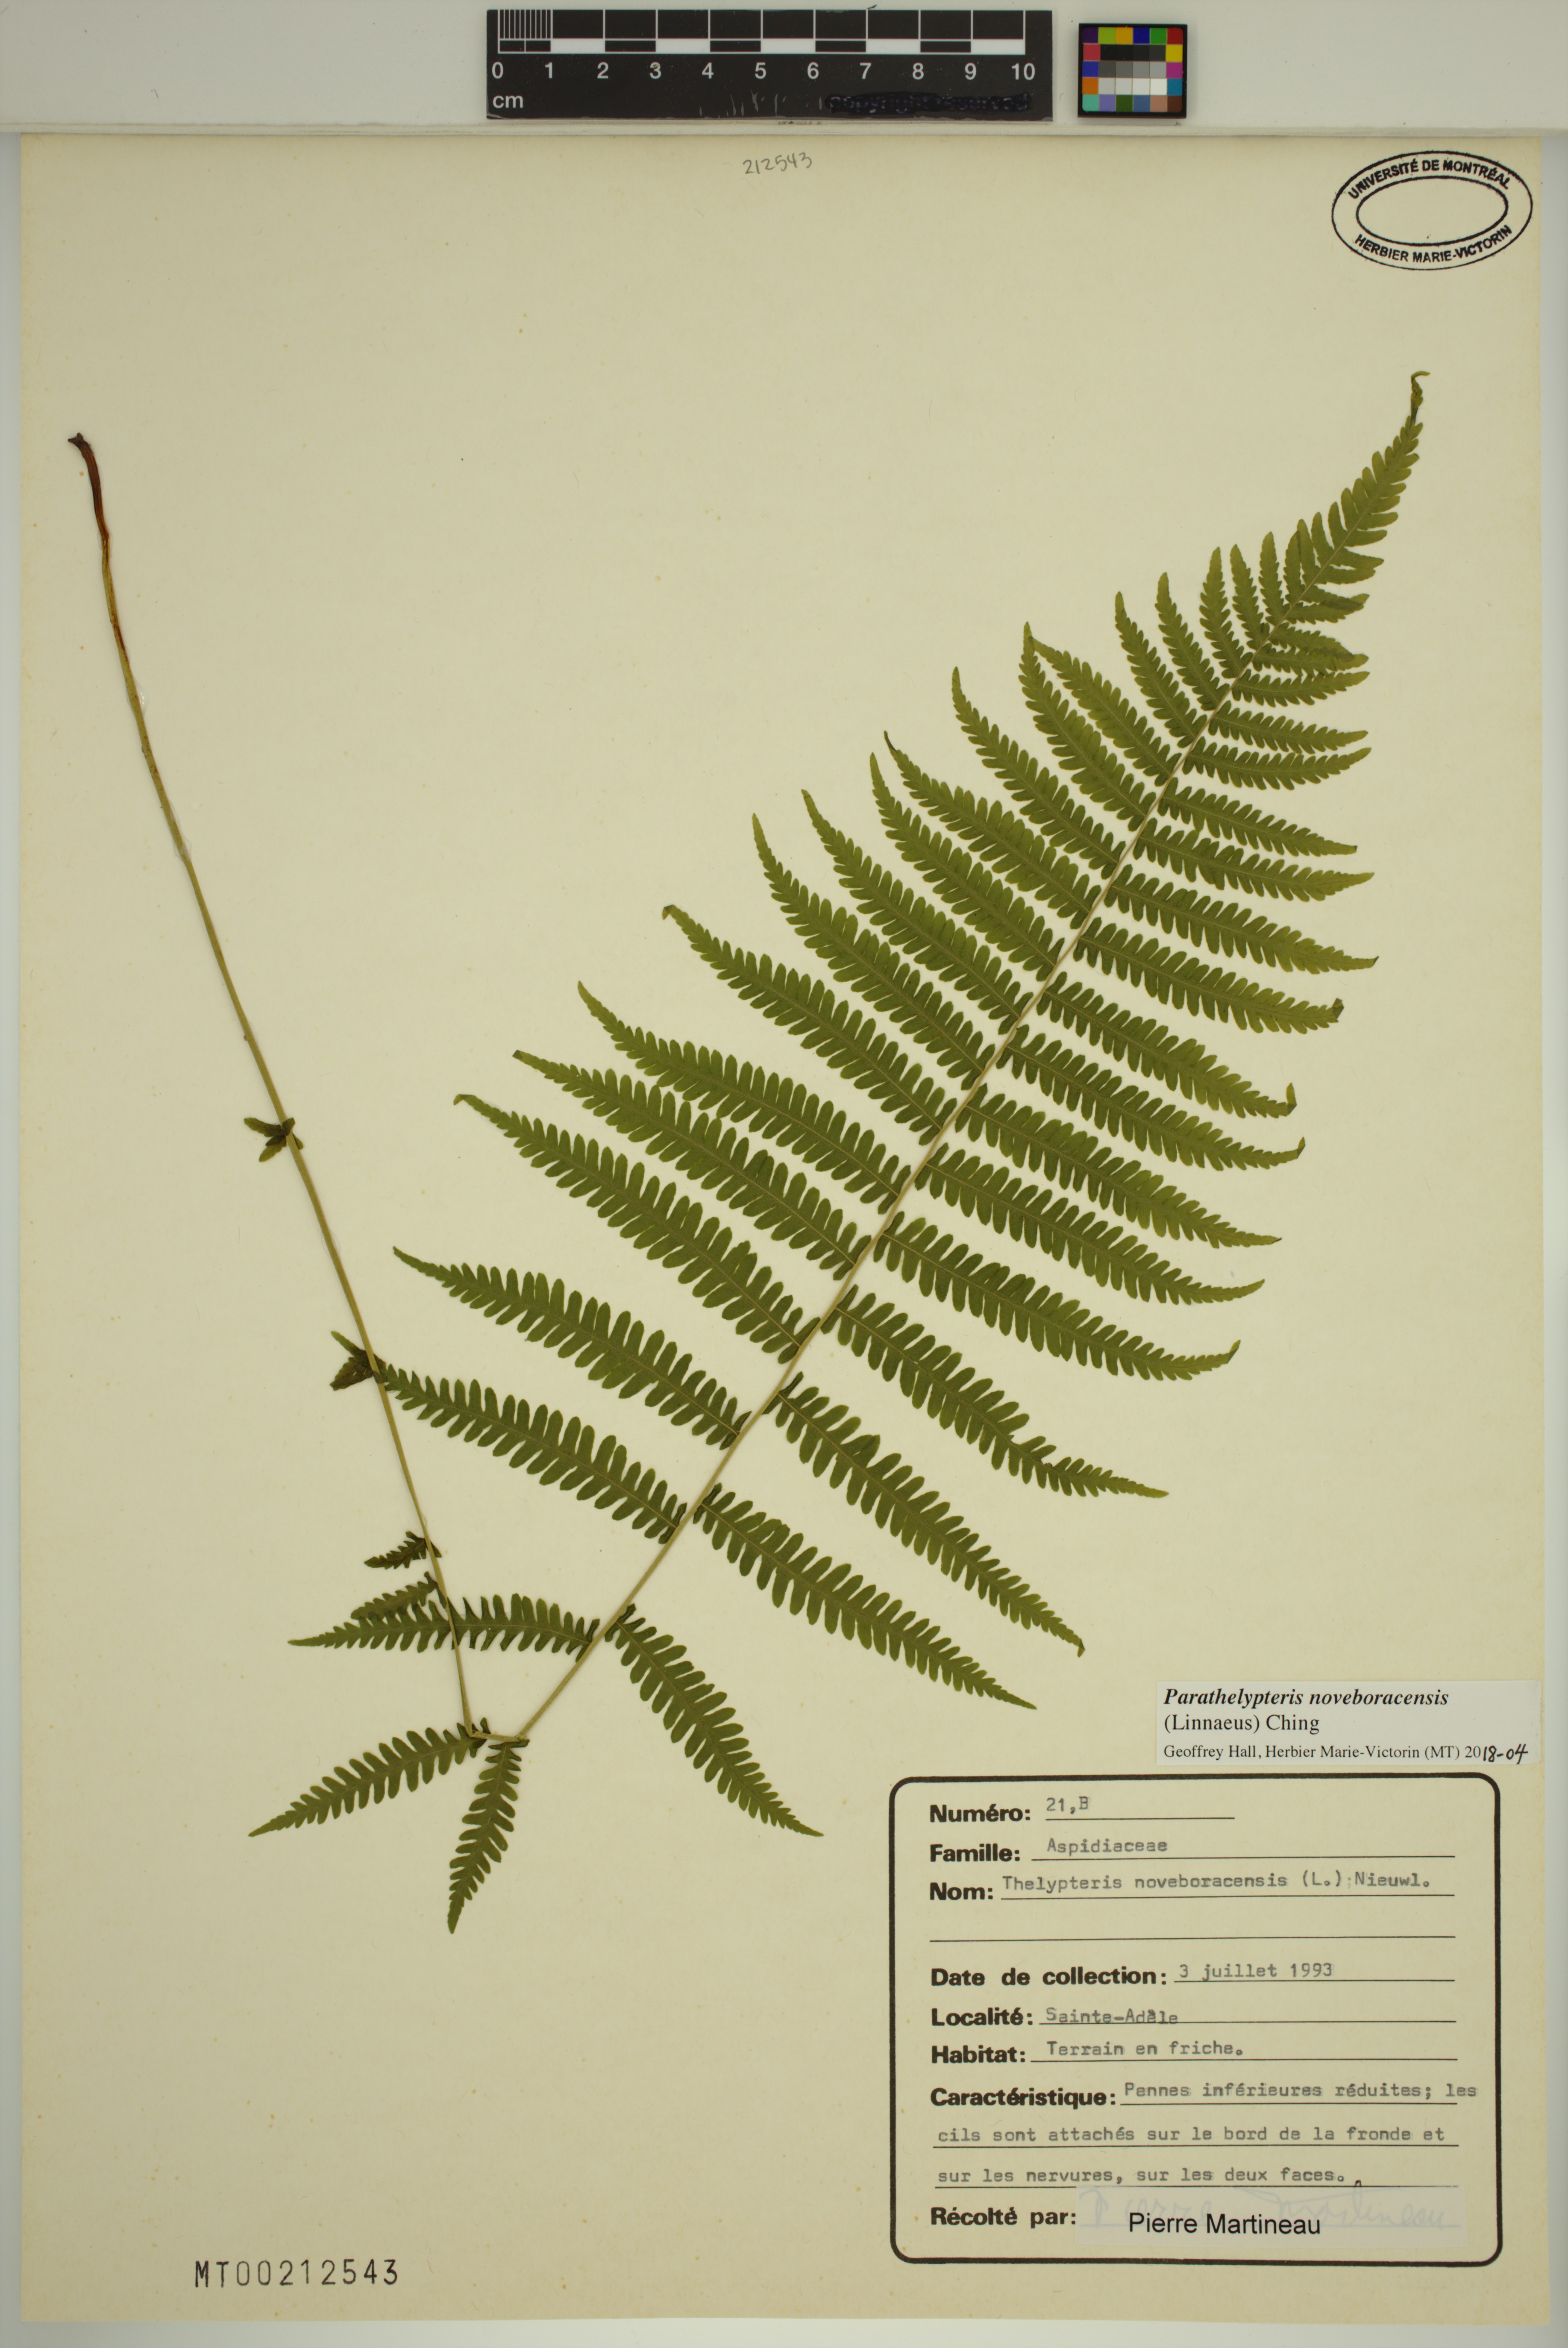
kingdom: Plantae
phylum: Tracheophyta
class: Polypodiopsida
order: Polypodiales
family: Thelypteridaceae
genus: Amauropelta
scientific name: Amauropelta noveboracensis
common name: New york fern
